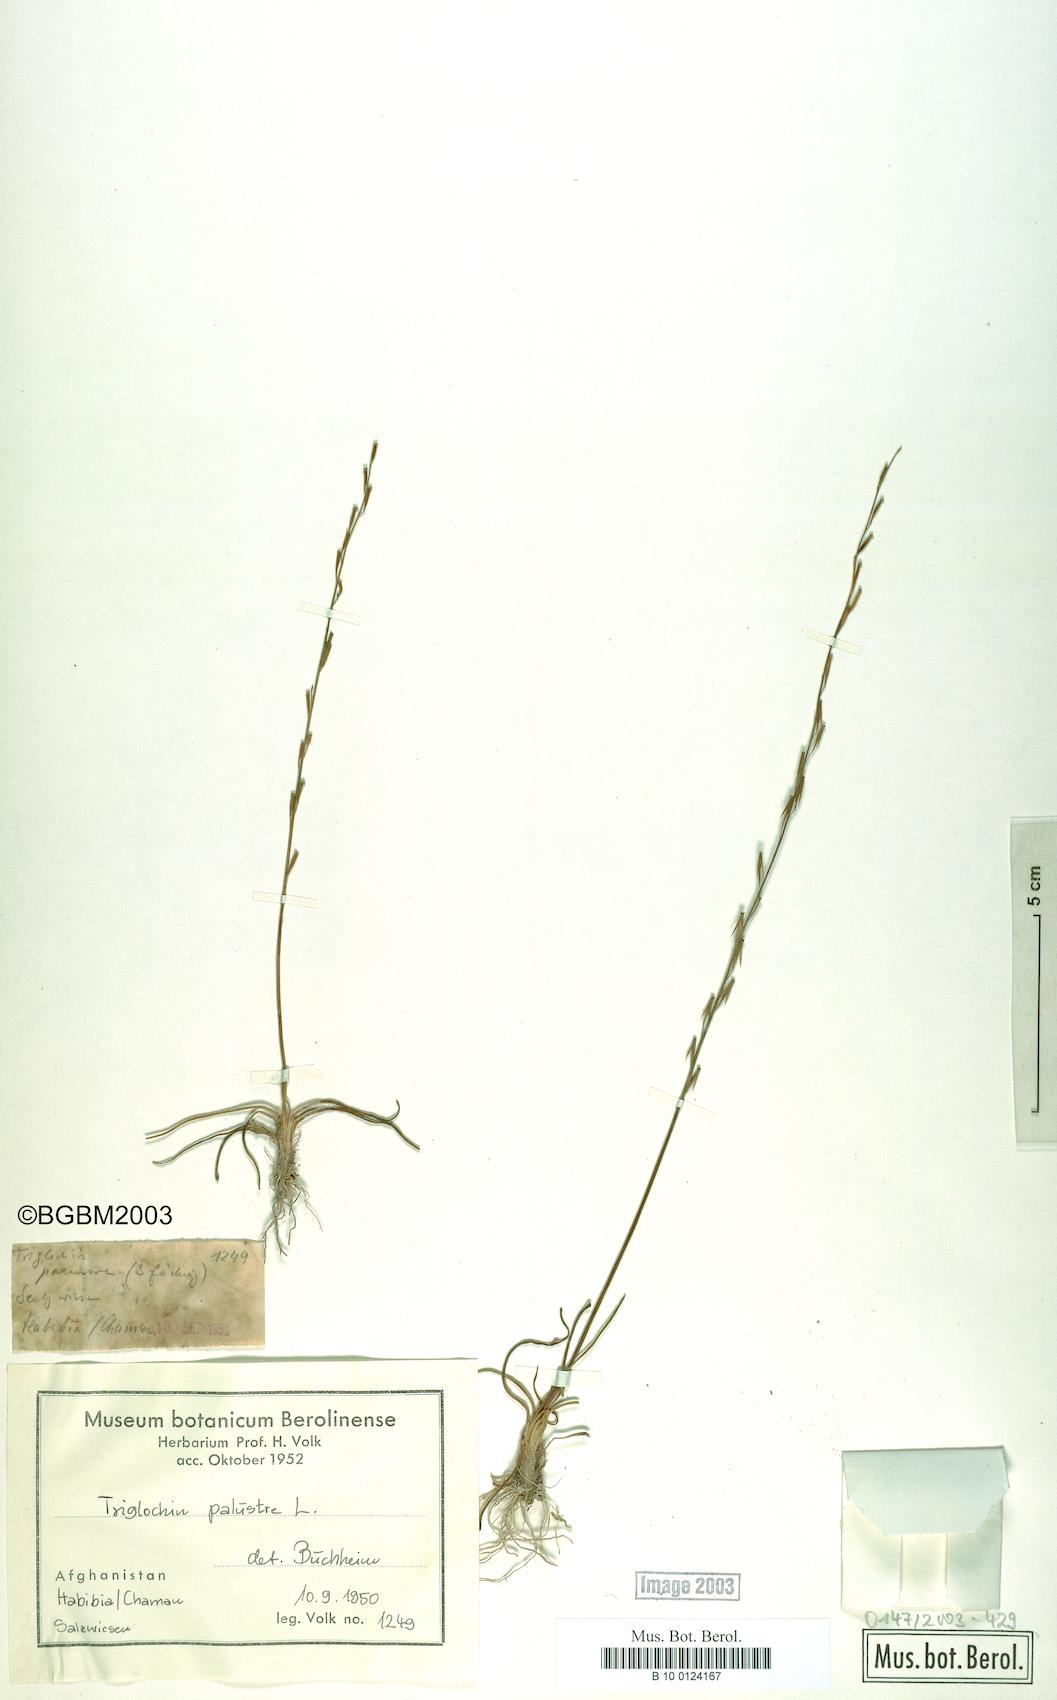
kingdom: Plantae
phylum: Tracheophyta
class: Liliopsida
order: Alismatales
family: Juncaginaceae
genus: Triglochin
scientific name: Triglochin palustris
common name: Marsh arrowgrass
